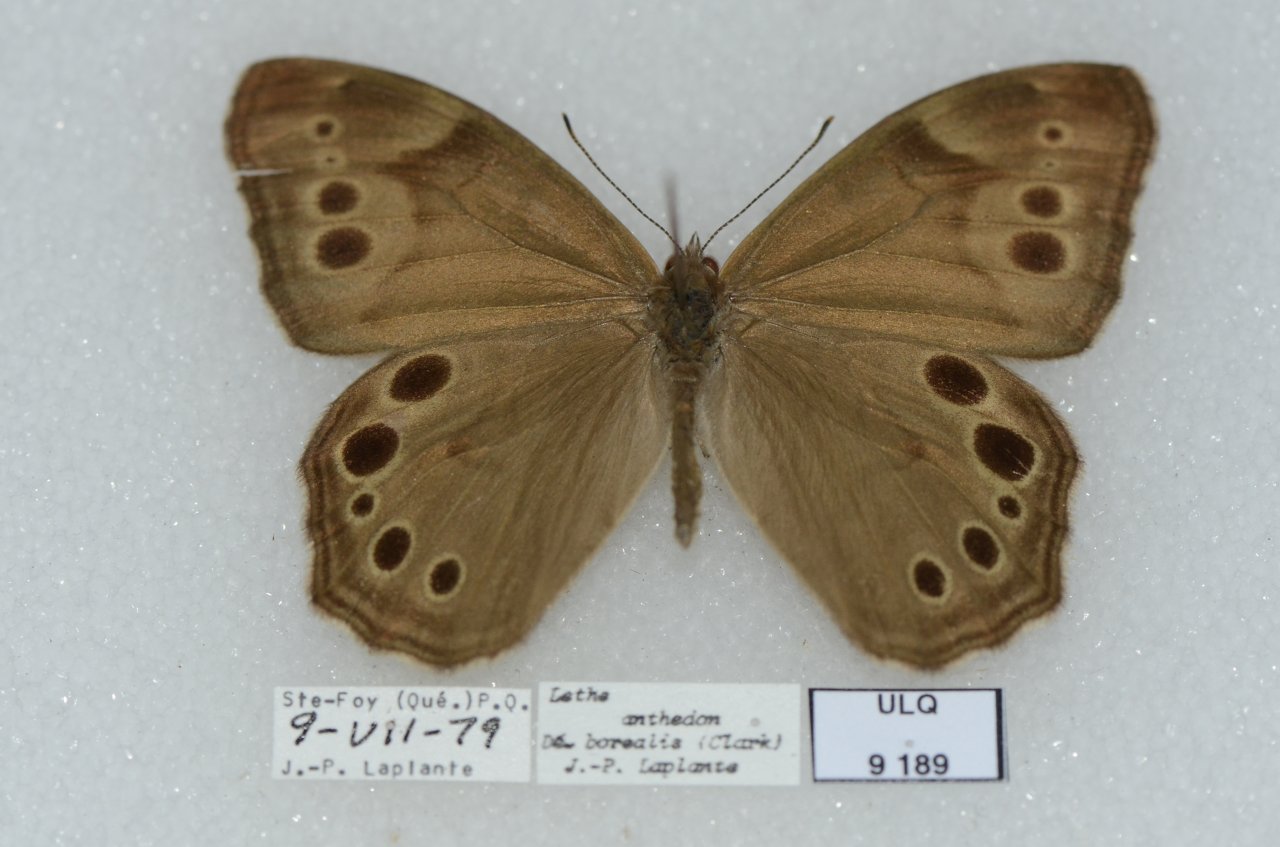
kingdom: Animalia
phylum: Arthropoda
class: Insecta
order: Lepidoptera
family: Nymphalidae
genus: Lethe
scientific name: Lethe anthedon
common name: Northern Pearly-Eye
